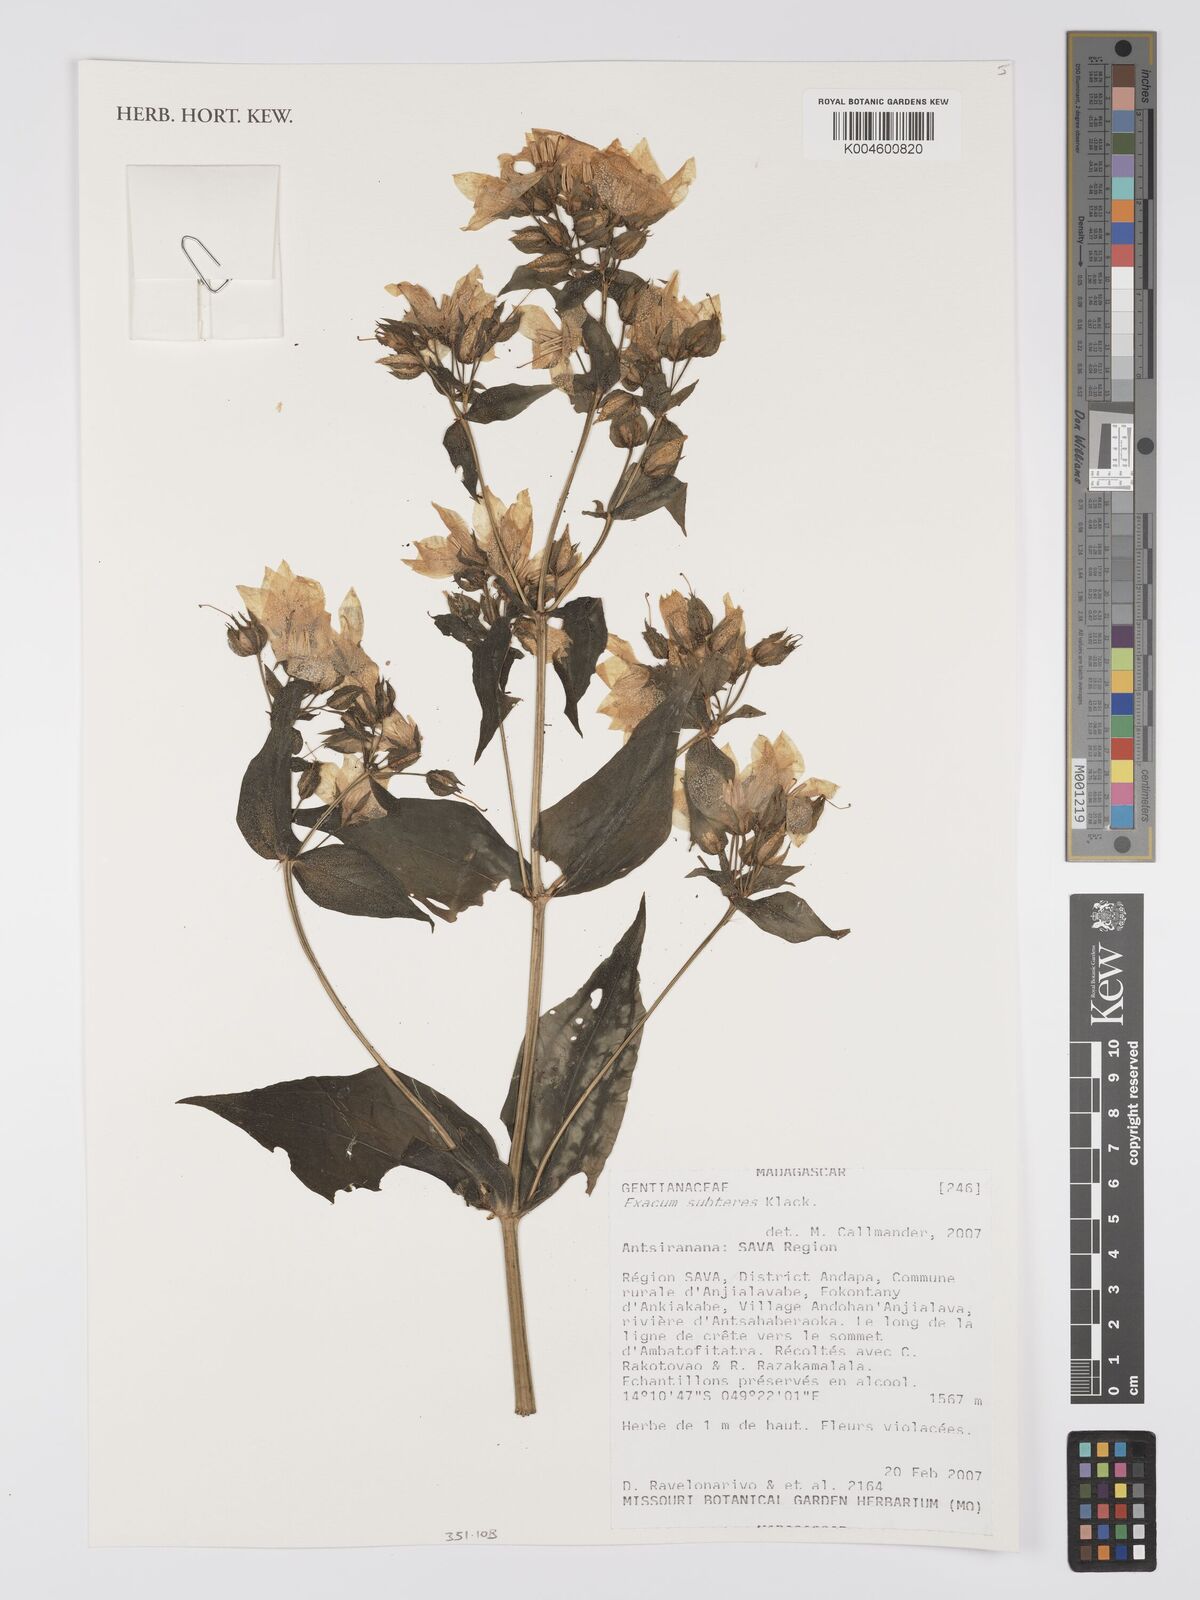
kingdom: Plantae
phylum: Tracheophyta
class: Magnoliopsida
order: Gentianales
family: Gentianaceae
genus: Exacum
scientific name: Exacum subteres
